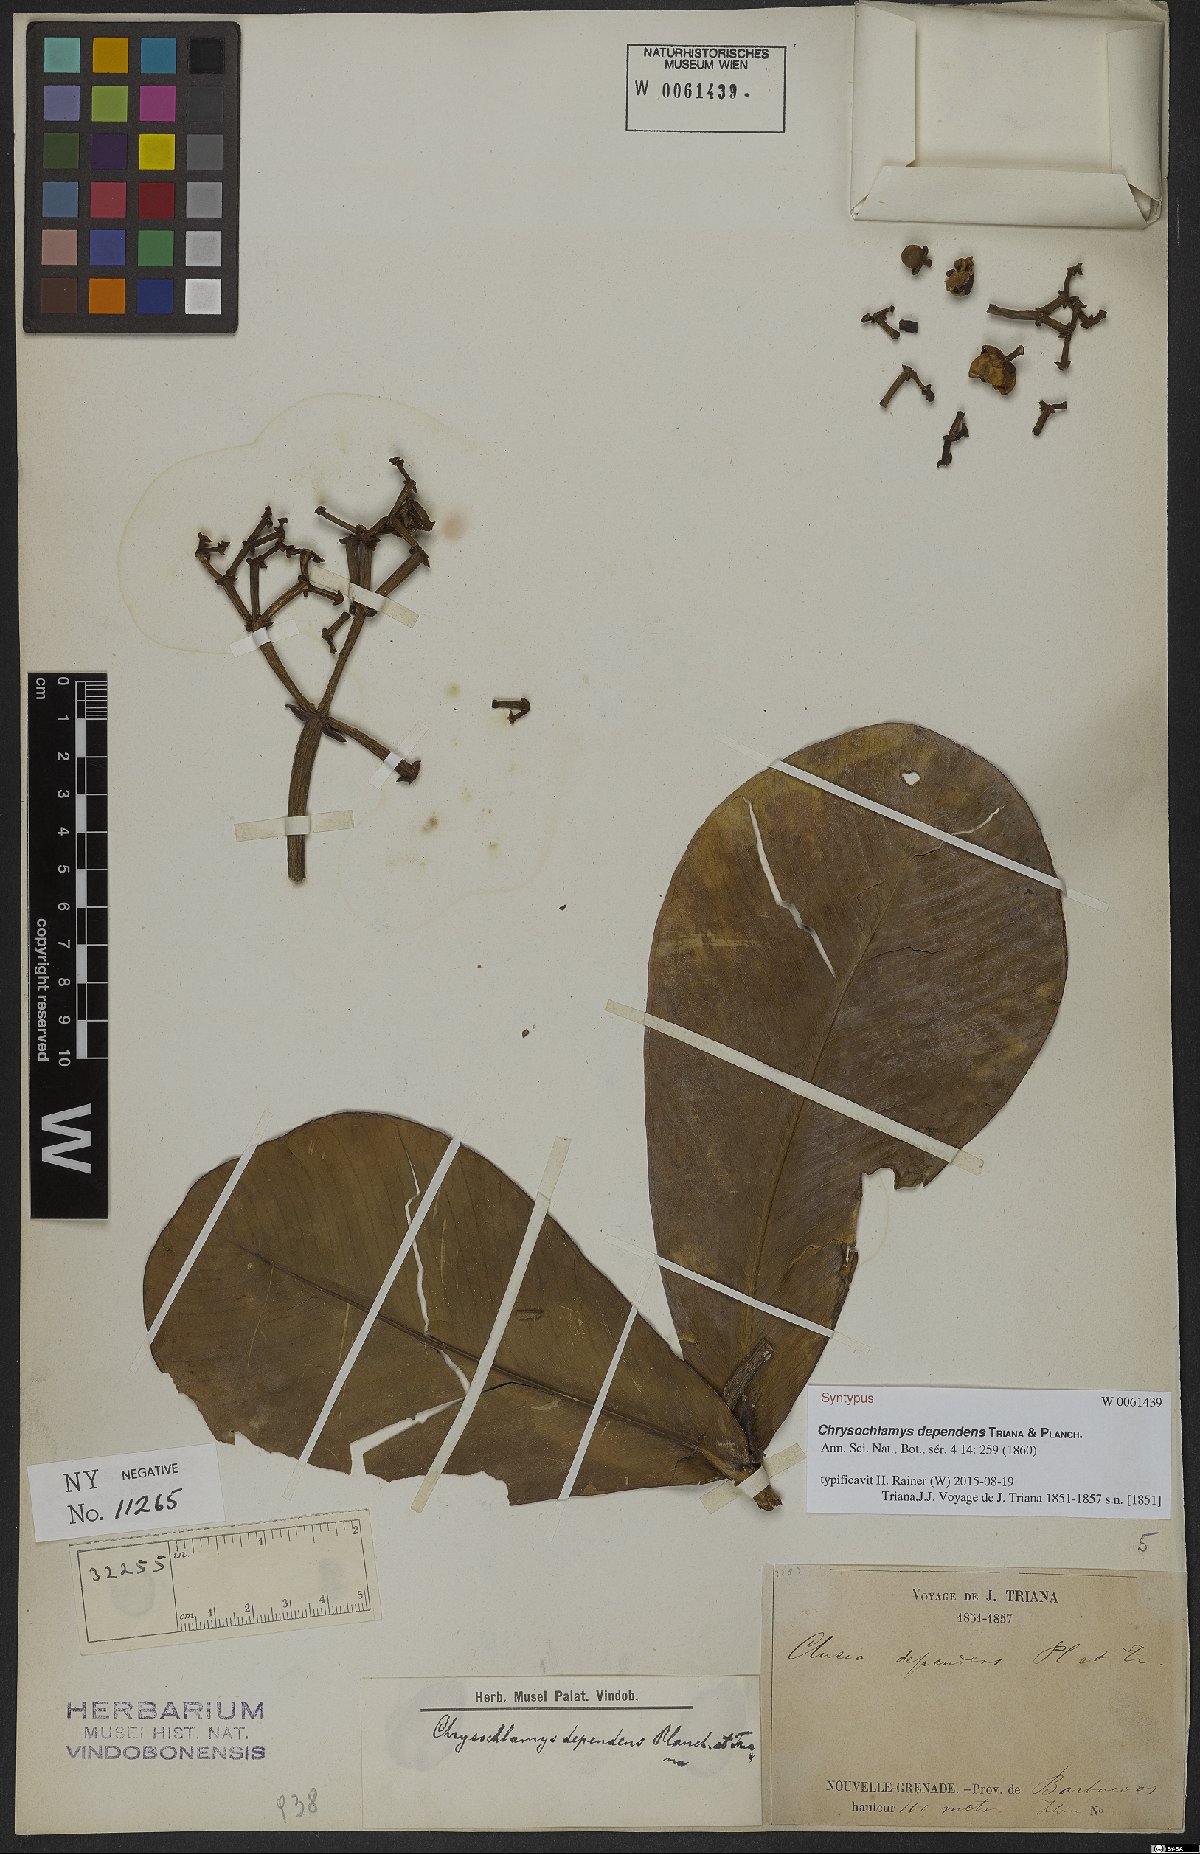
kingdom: Plantae
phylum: Tracheophyta
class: Magnoliopsida
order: Malpighiales
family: Clusiaceae
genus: Chrysochlamys
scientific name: Chrysochlamys dependens
